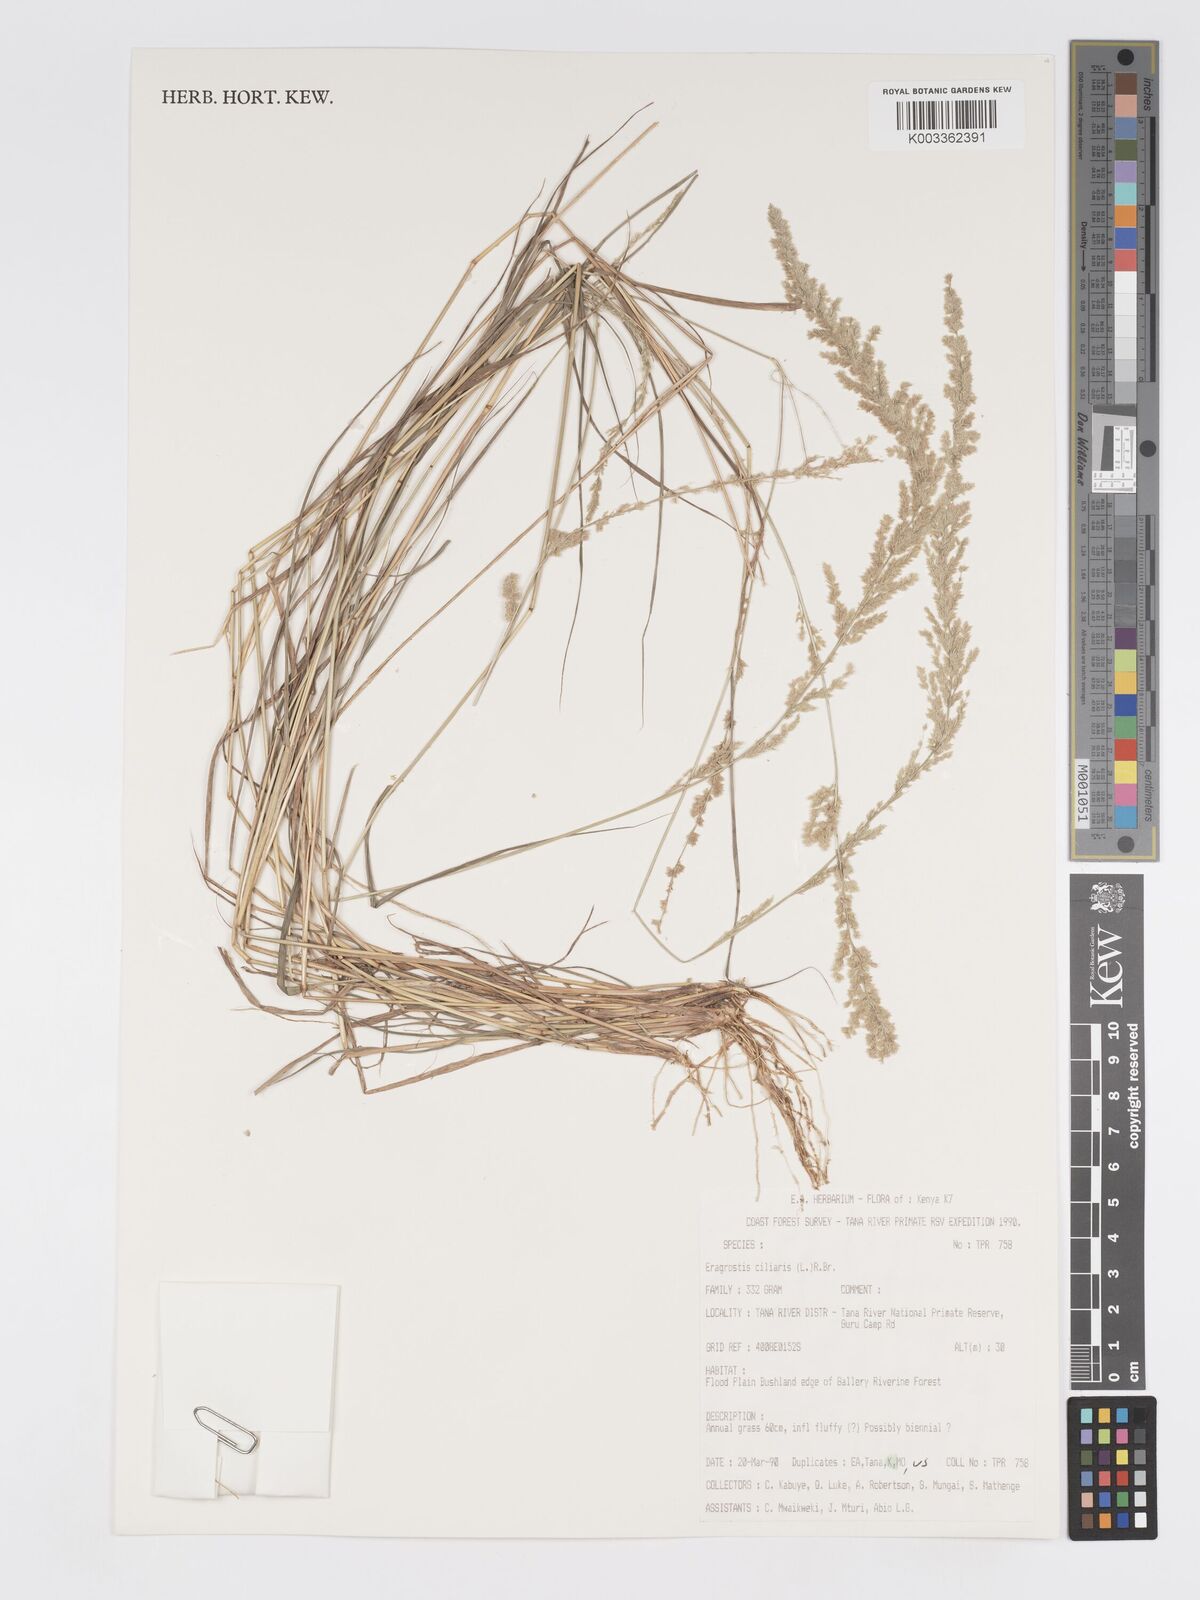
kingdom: Plantae
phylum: Tracheophyta
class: Liliopsida
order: Poales
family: Poaceae
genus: Eragrostis
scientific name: Eragrostis ciliaris
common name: Gophertail lovegrass
